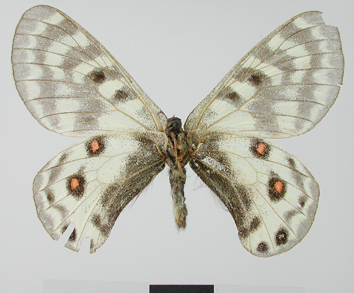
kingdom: Animalia
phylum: Arthropoda
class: Insecta
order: Lepidoptera
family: Papilionidae
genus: Parnassius
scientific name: Parnassius staudingeri
